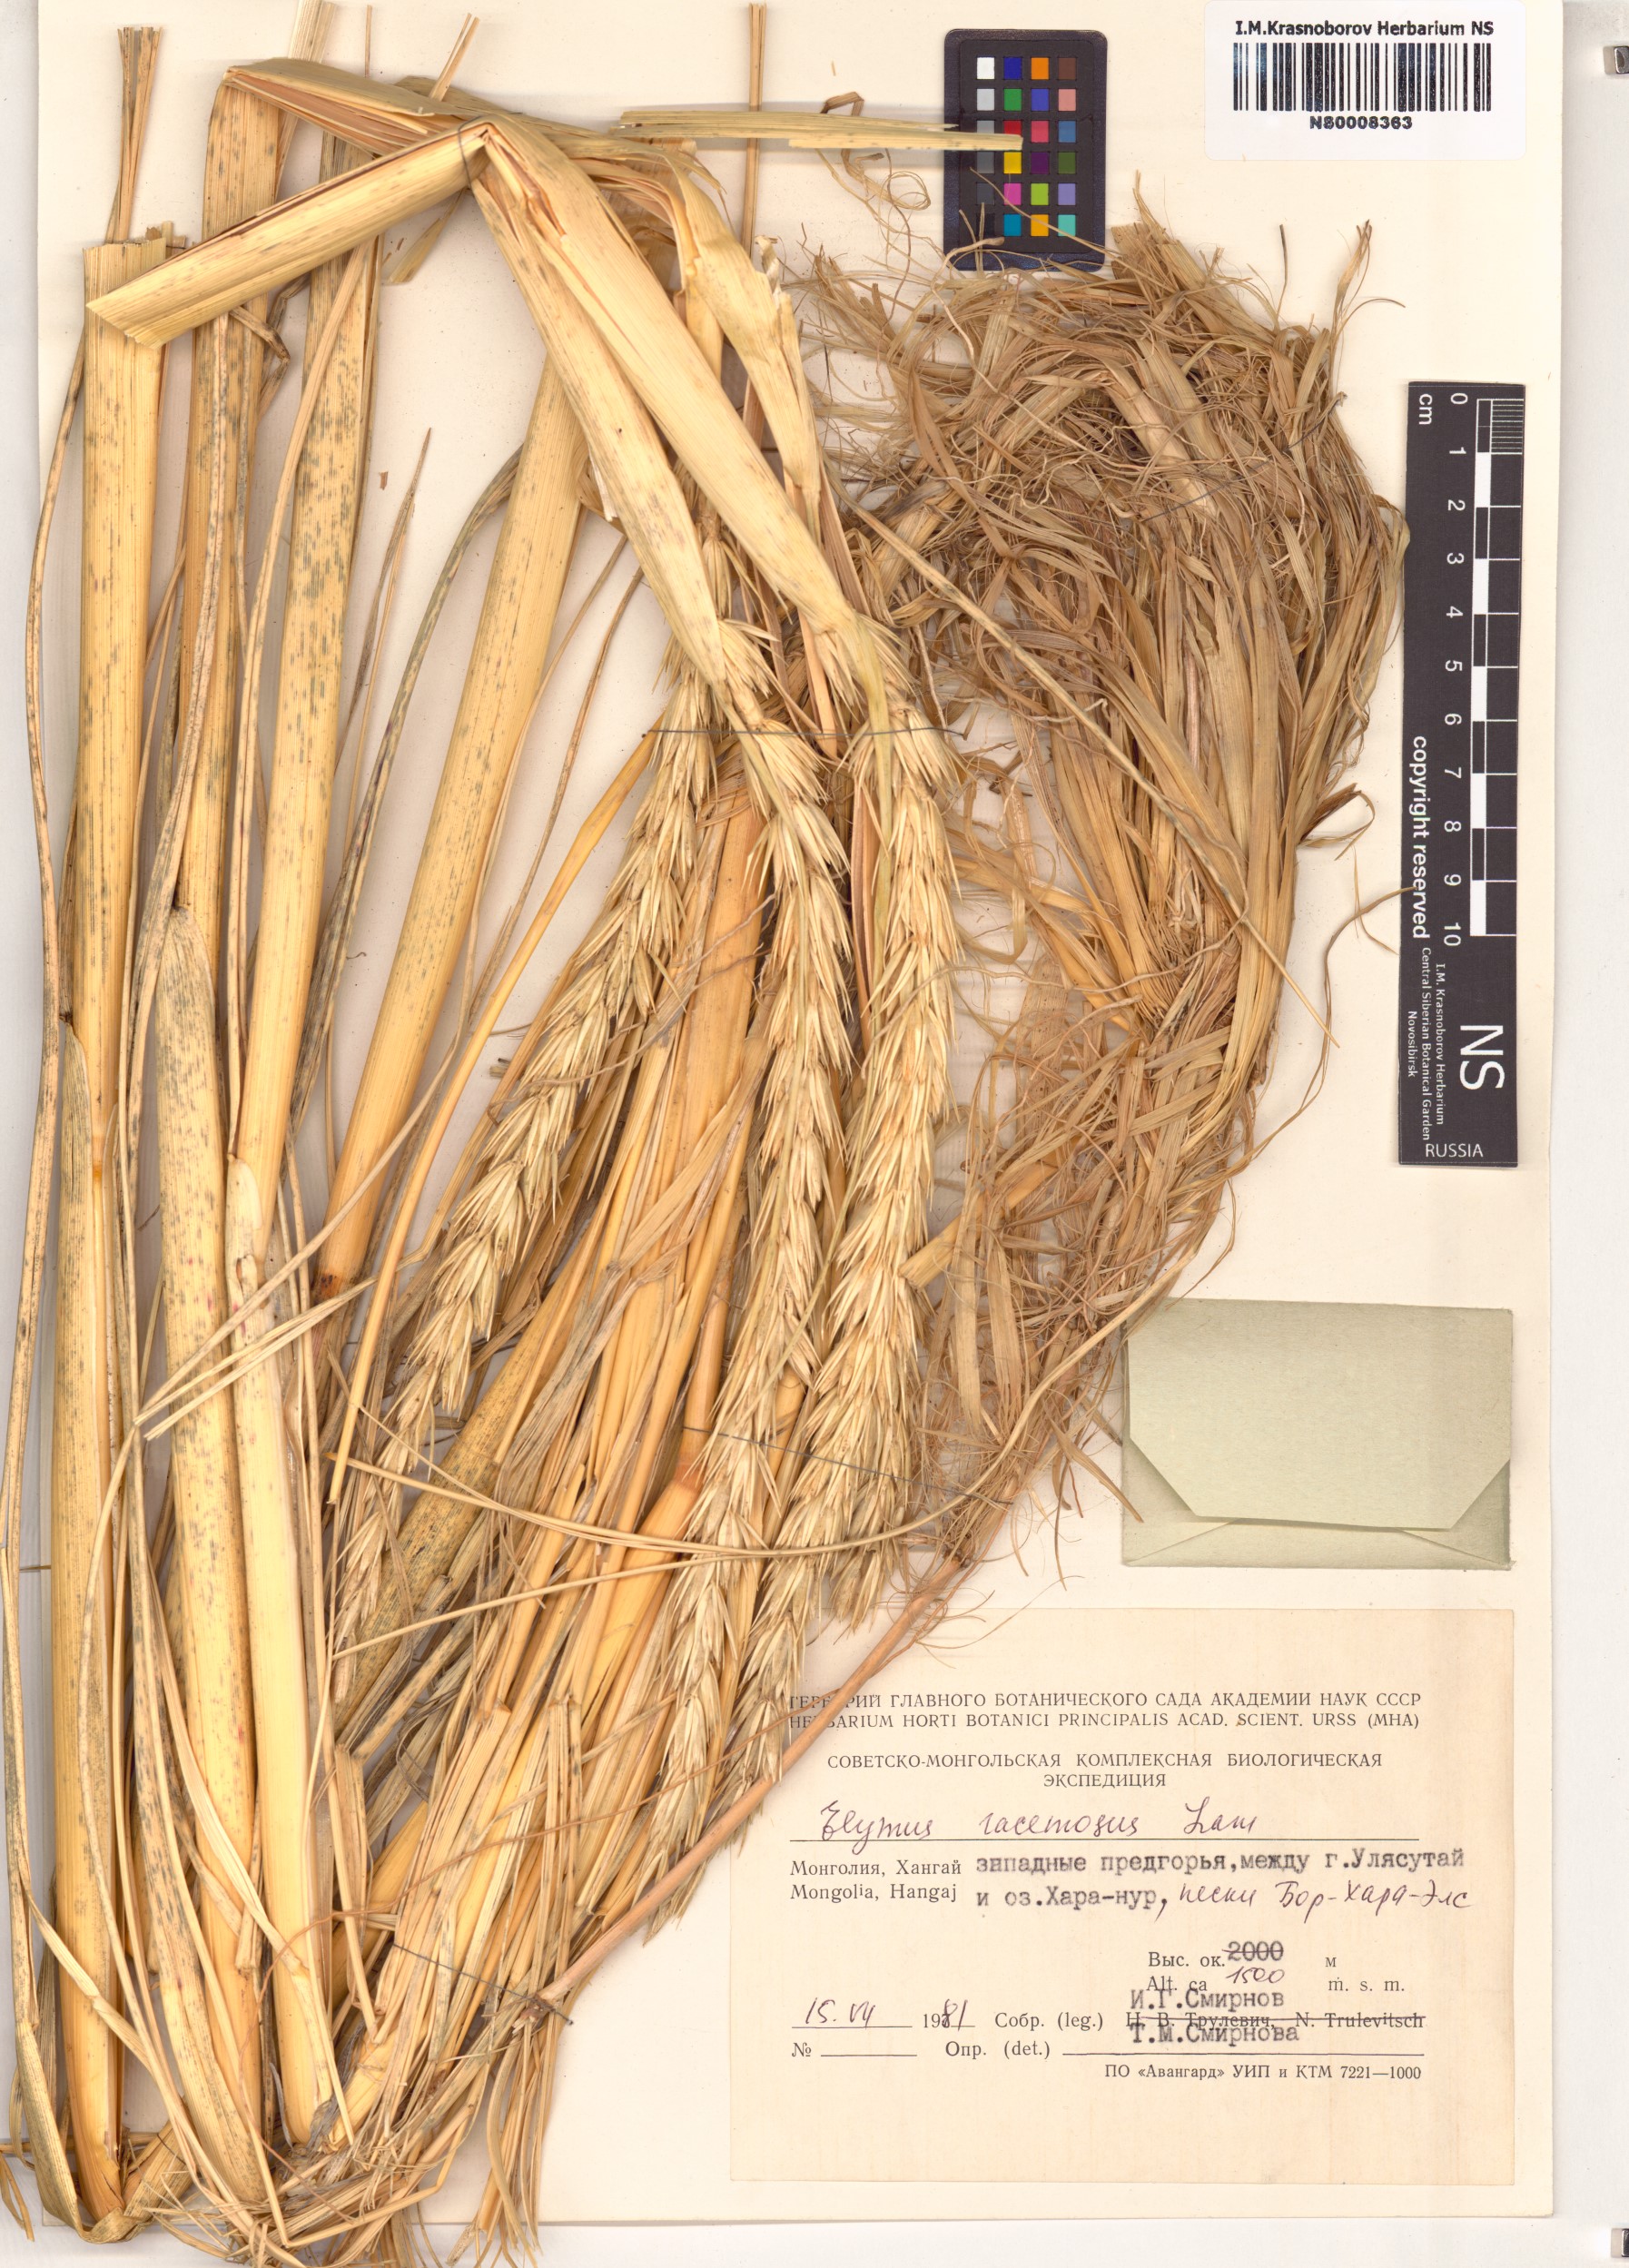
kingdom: Plantae
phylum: Tracheophyta
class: Liliopsida
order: Poales
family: Poaceae
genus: Leymus
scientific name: Leymus racemosus
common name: Mammoth wildrye
